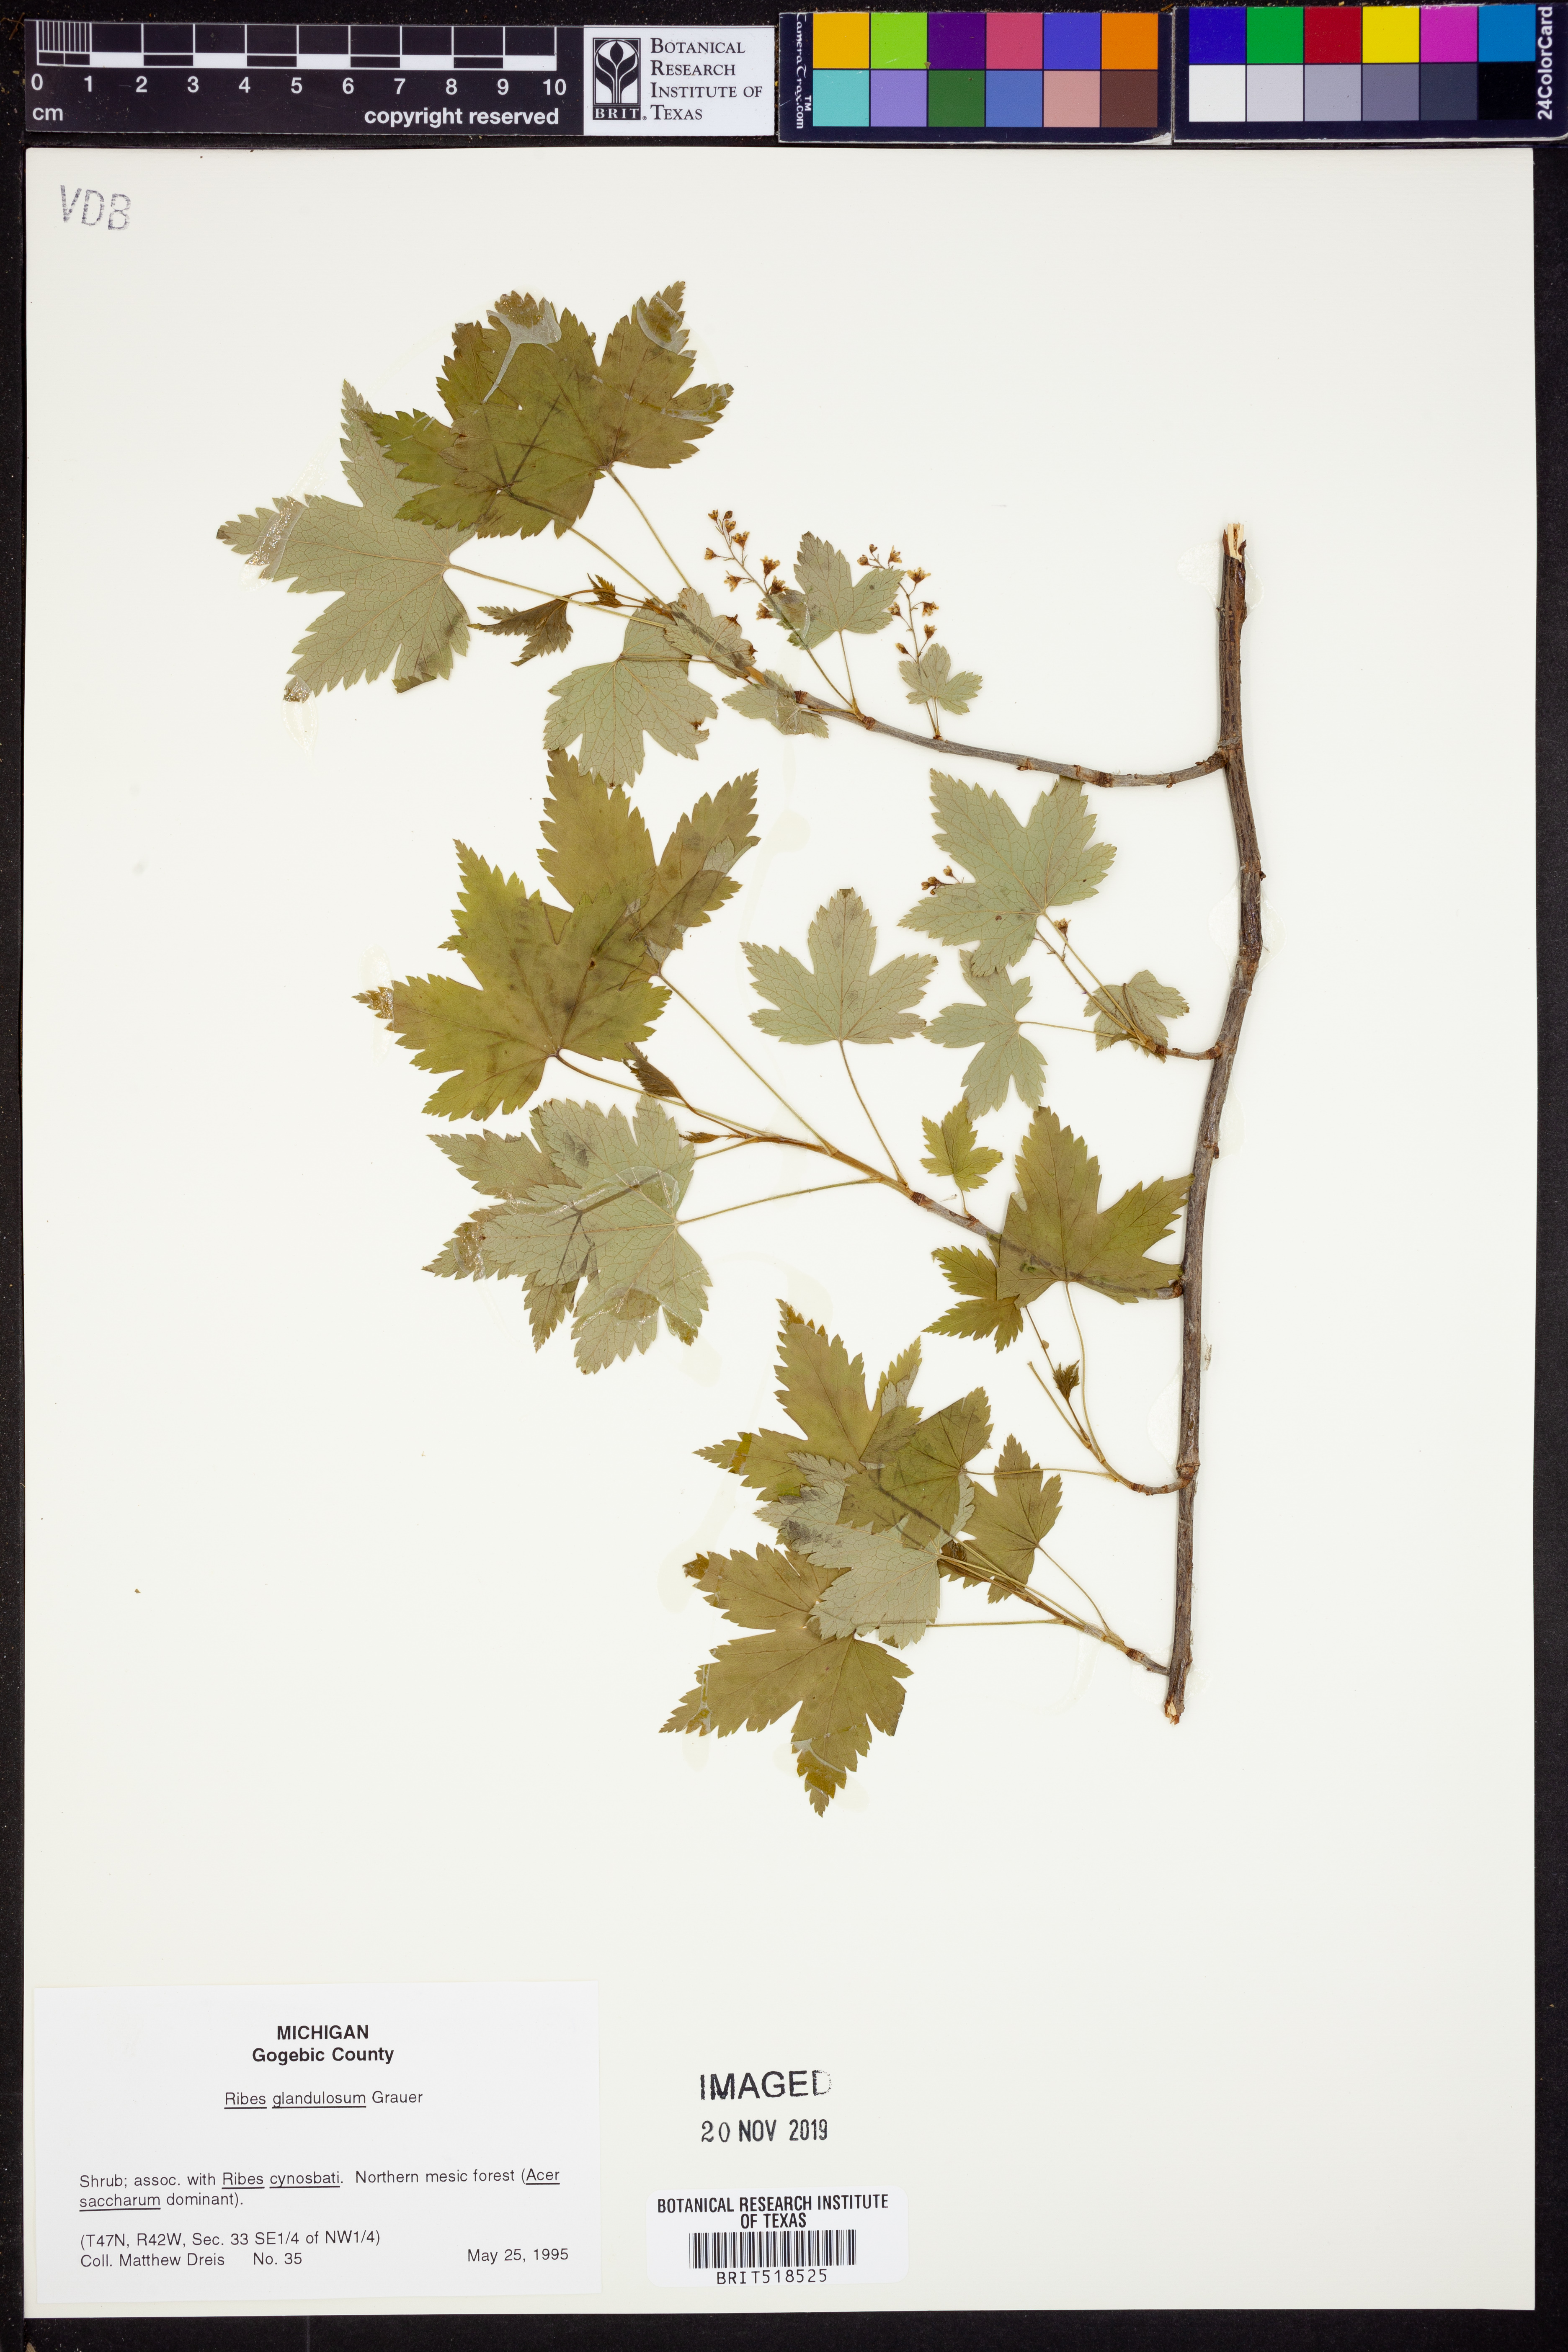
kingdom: Plantae
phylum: Tracheophyta
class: Magnoliopsida
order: Saxifragales
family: Grossulariaceae
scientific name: Grossulariaceae
